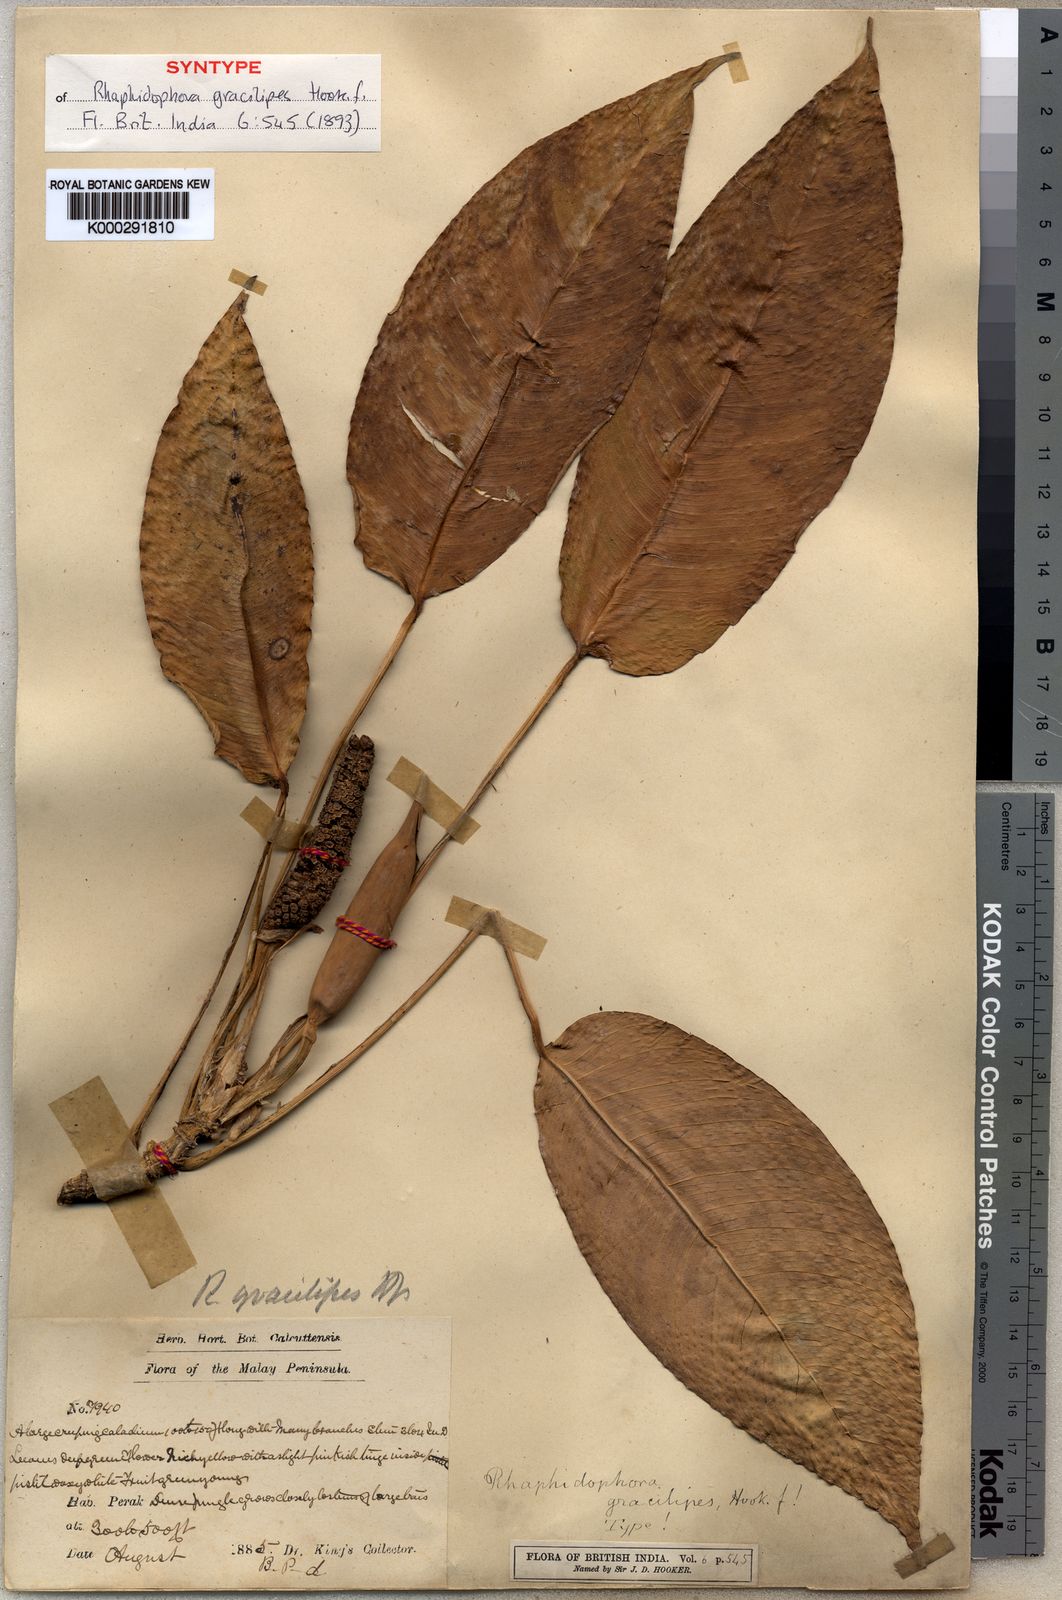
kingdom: Plantae
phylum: Tracheophyta
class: Liliopsida
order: Alismatales
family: Araceae
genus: Rhaphidophora
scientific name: Rhaphidophora puberula
